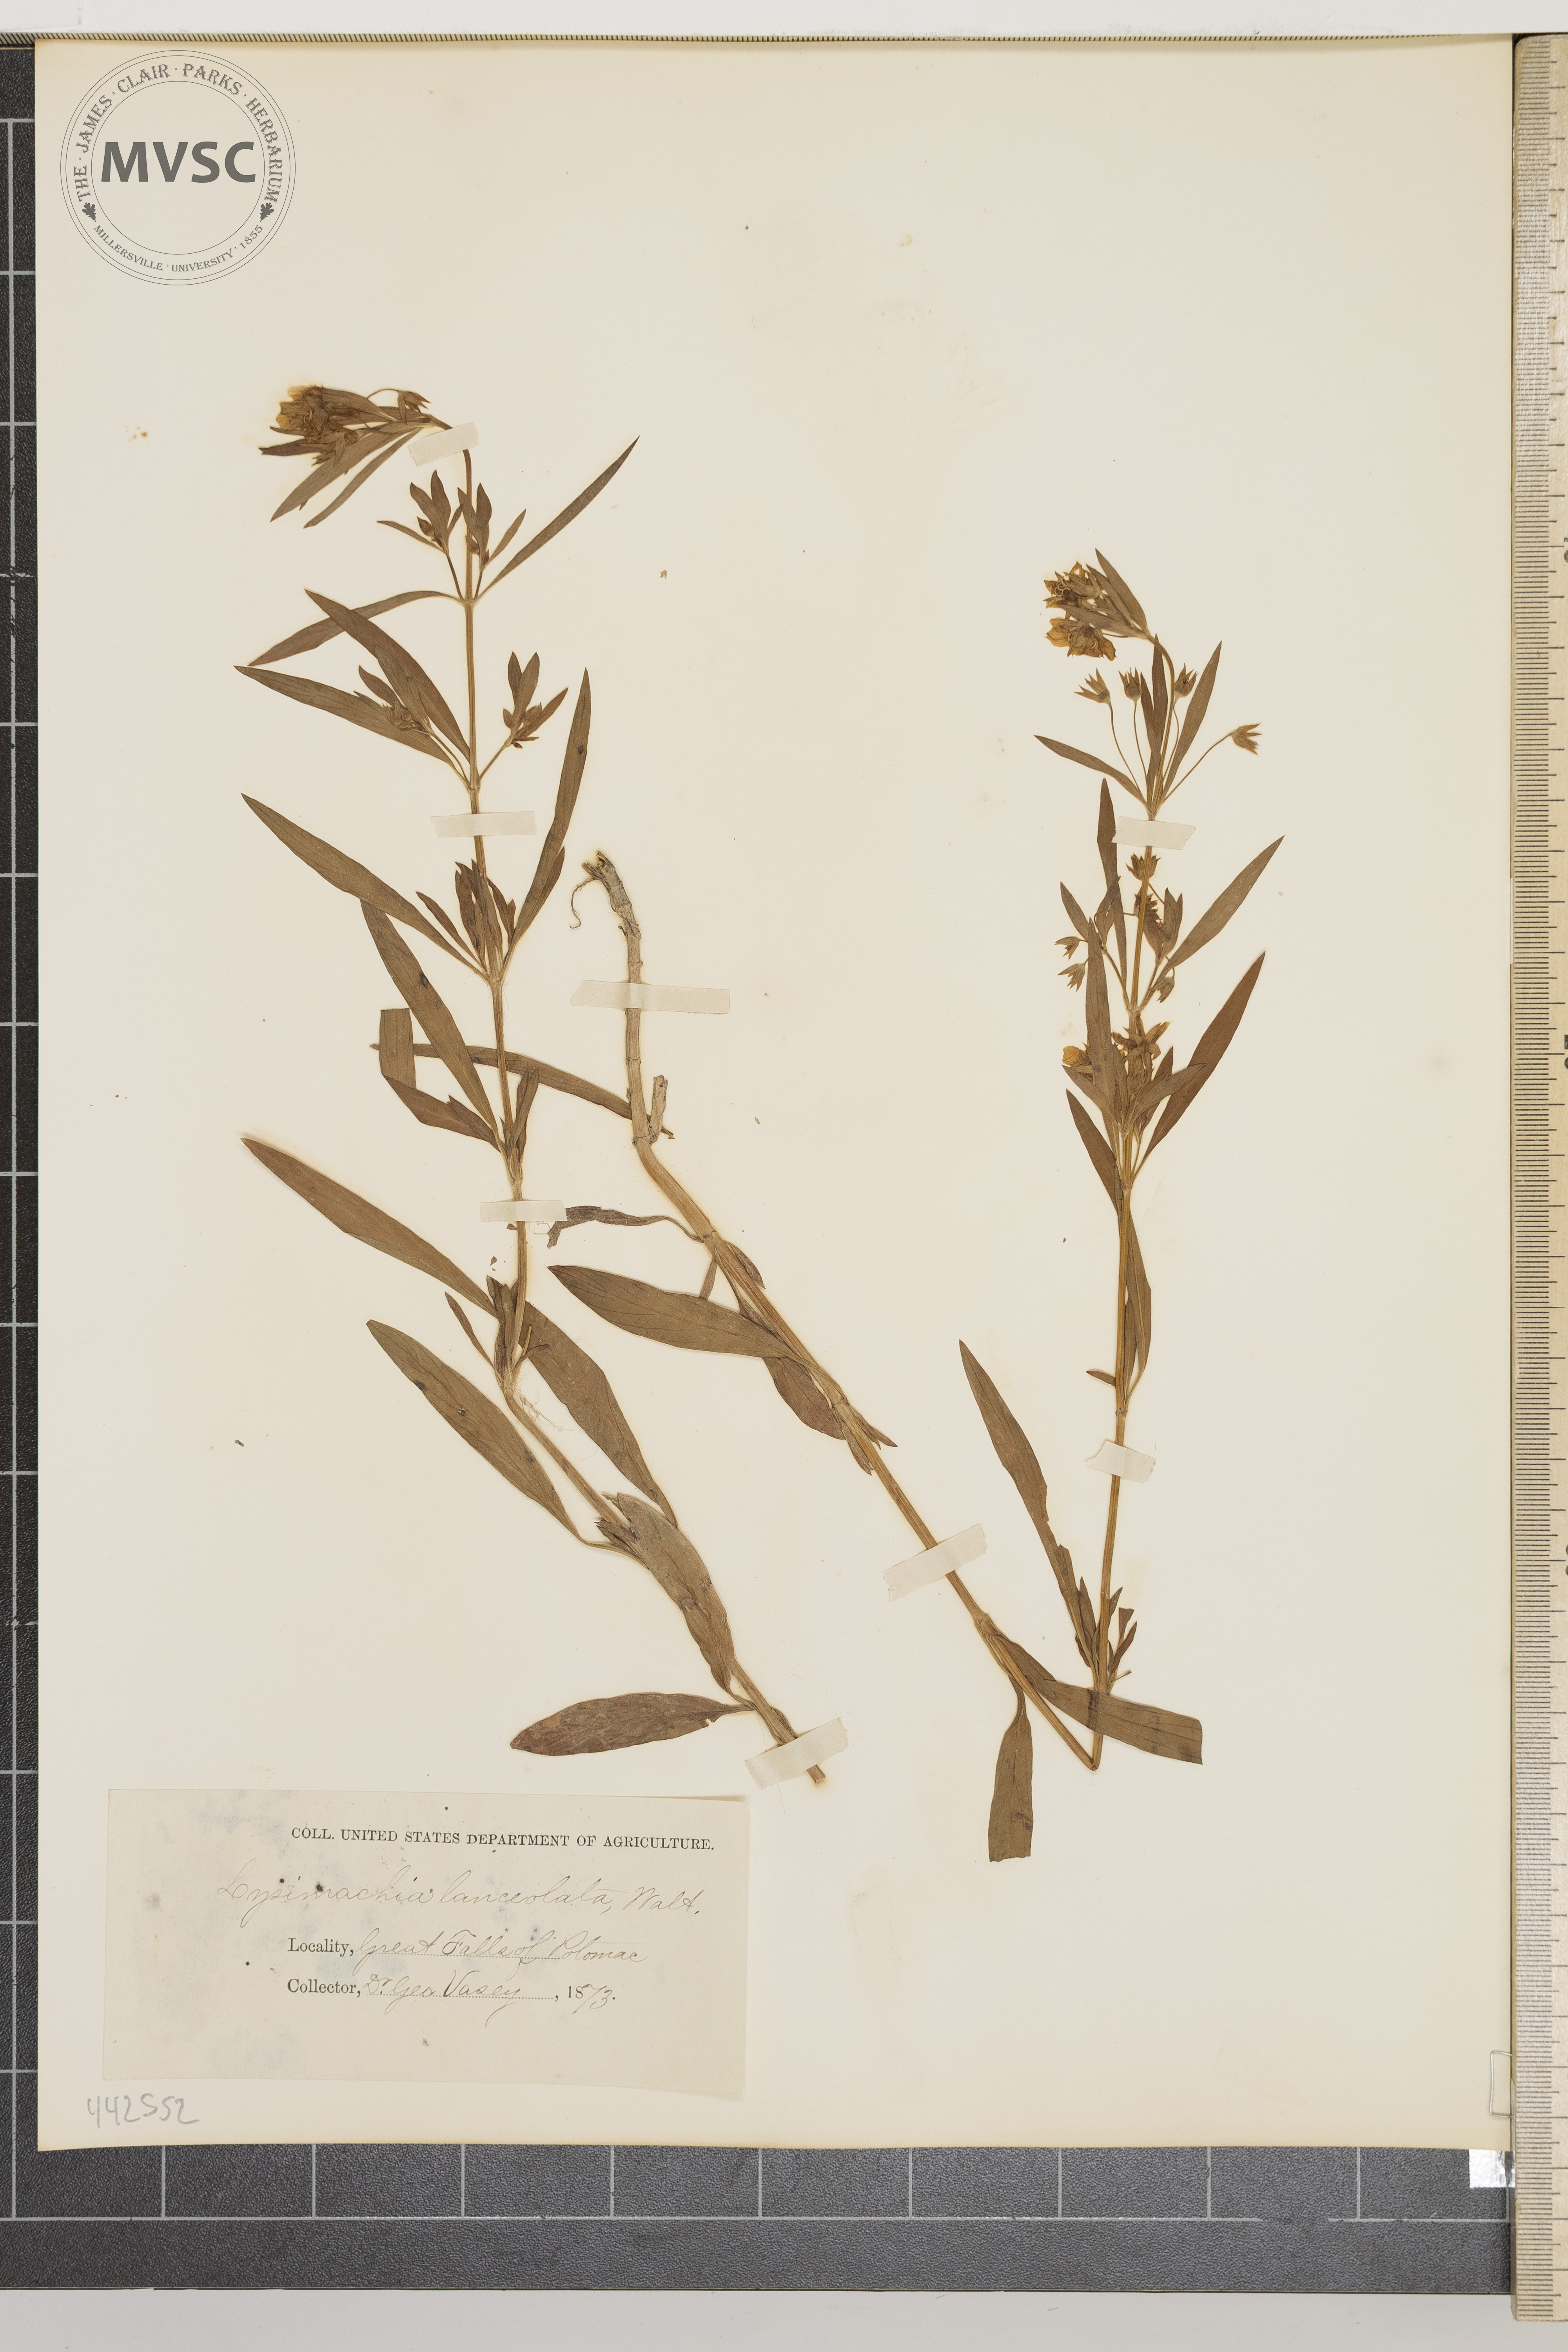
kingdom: Plantae
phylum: Tracheophyta
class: Magnoliopsida
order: Ericales
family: Primulaceae
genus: Lysimachia
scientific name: Lysimachia lanceolata
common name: Lance-leaved loosestrife
